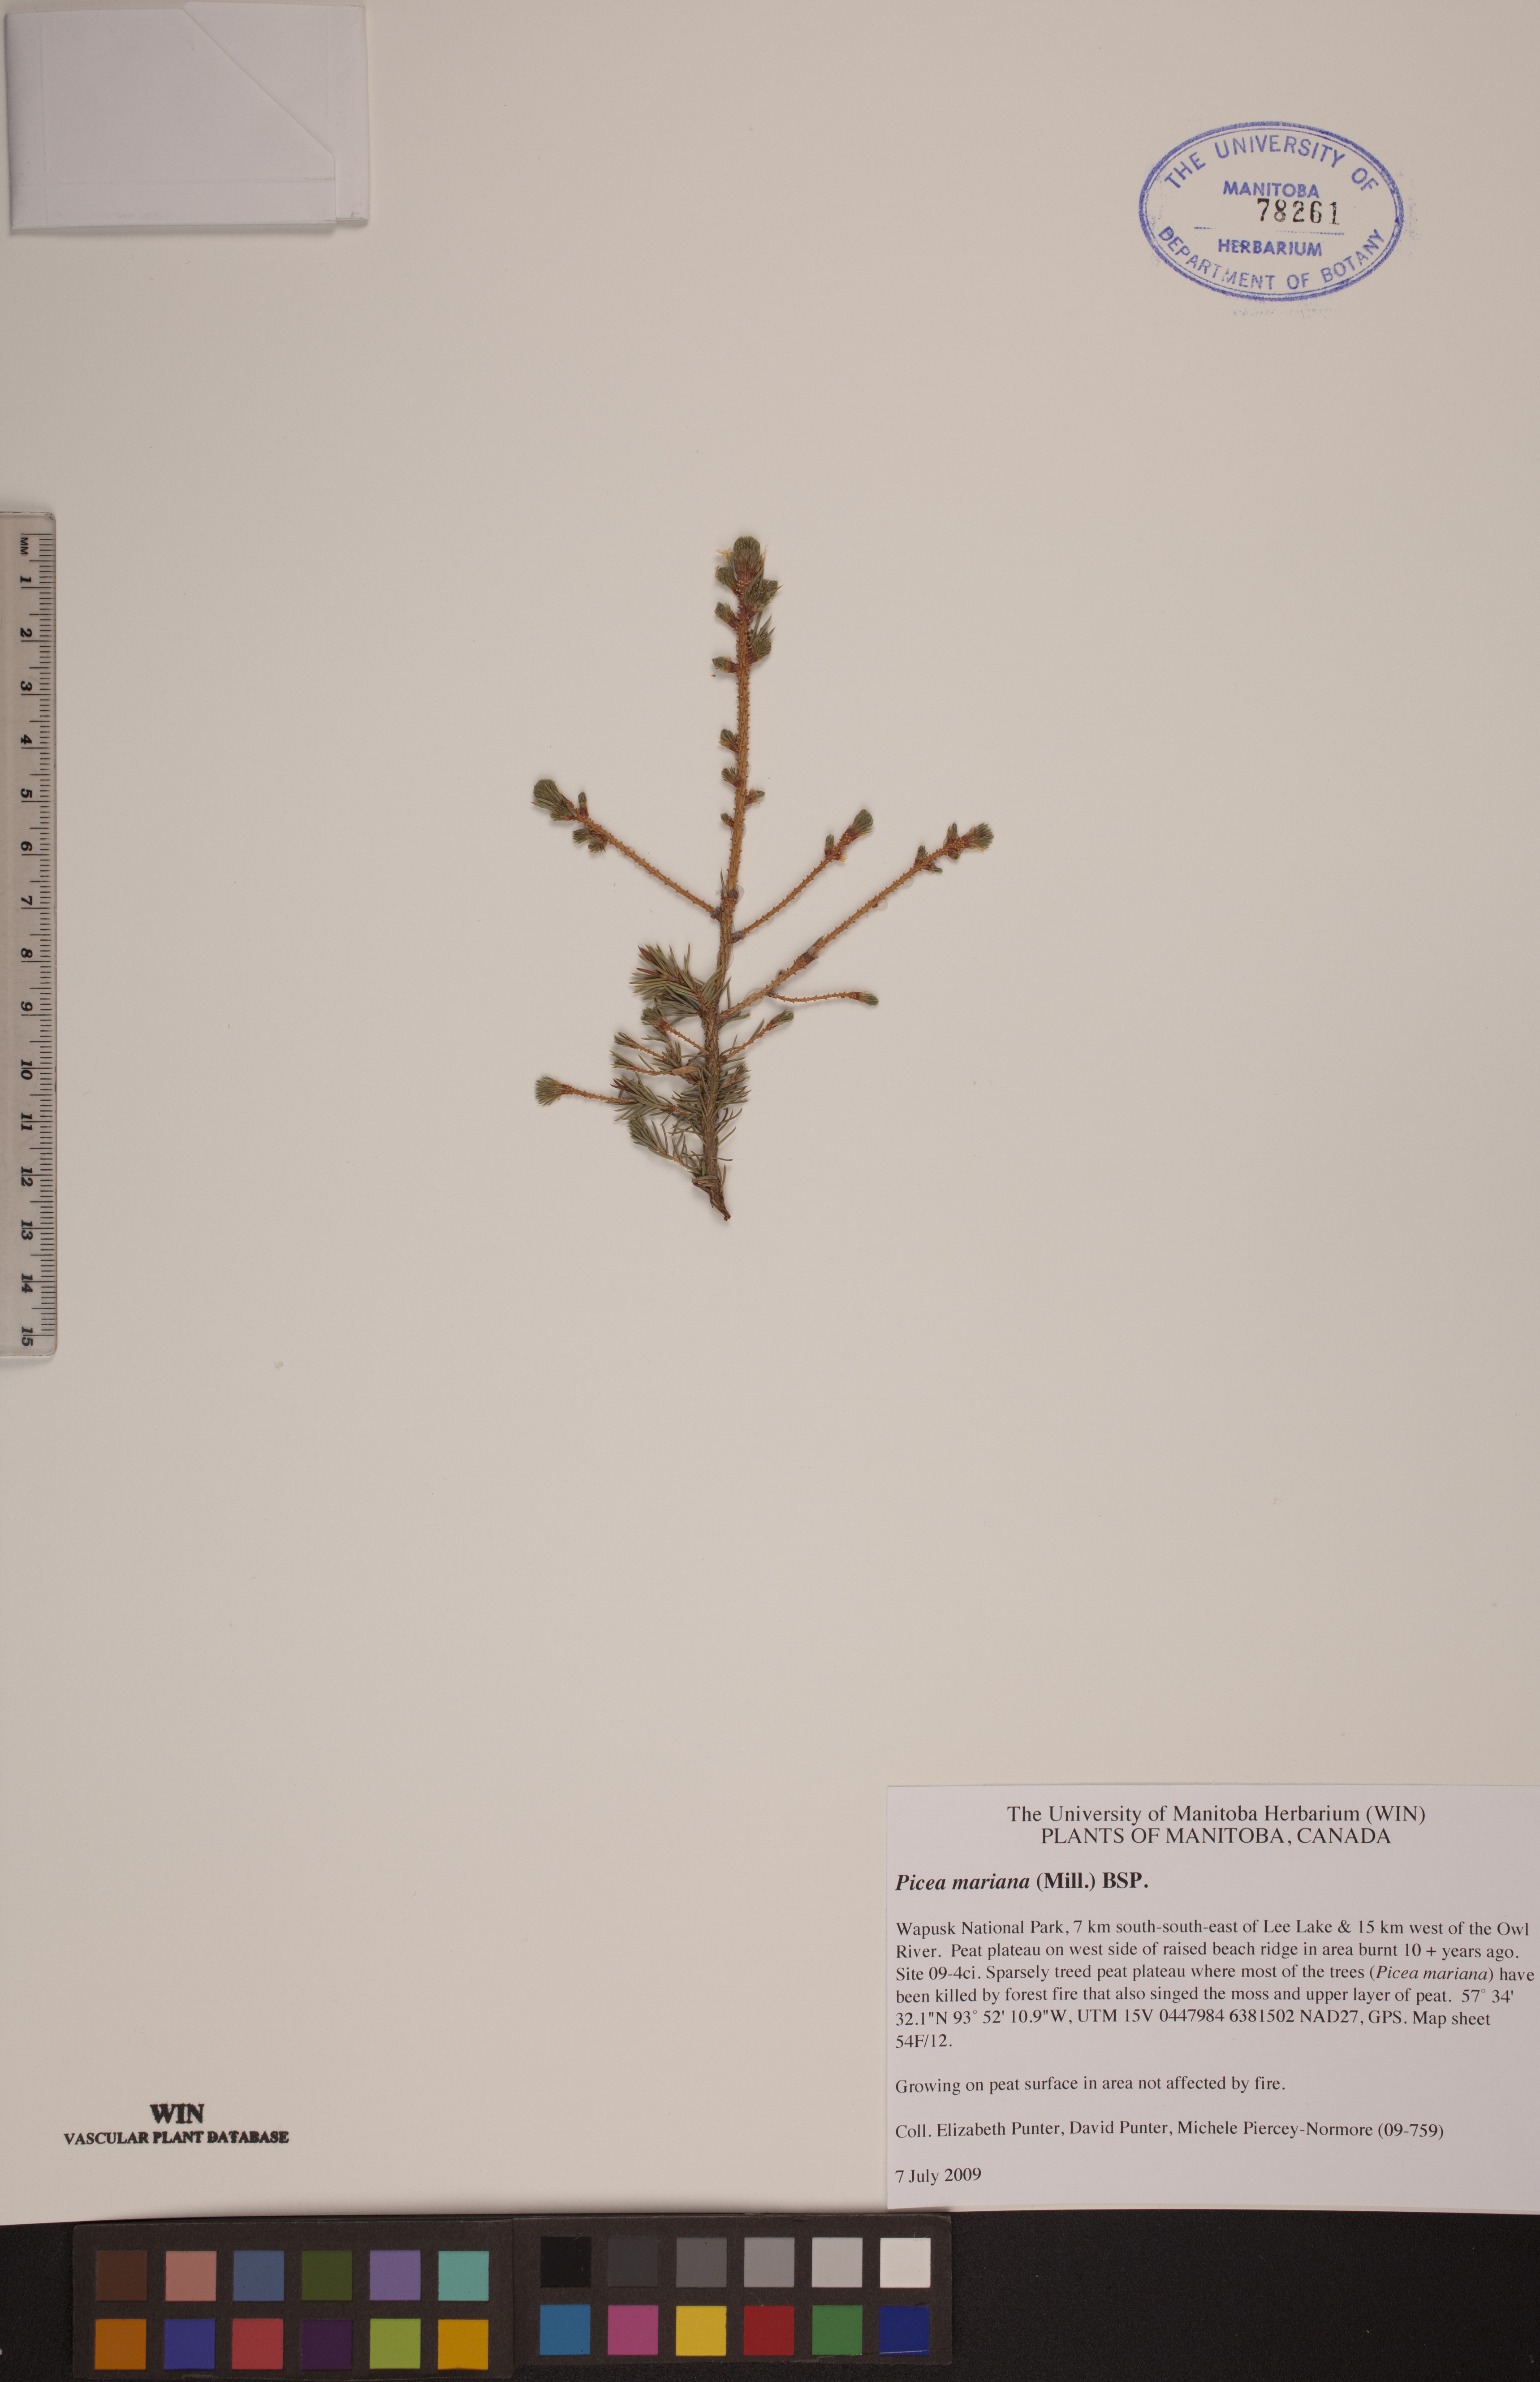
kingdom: Plantae
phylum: Tracheophyta
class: Pinopsida
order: Pinales
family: Pinaceae
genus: Picea
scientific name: Picea mariana
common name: Black spruce
